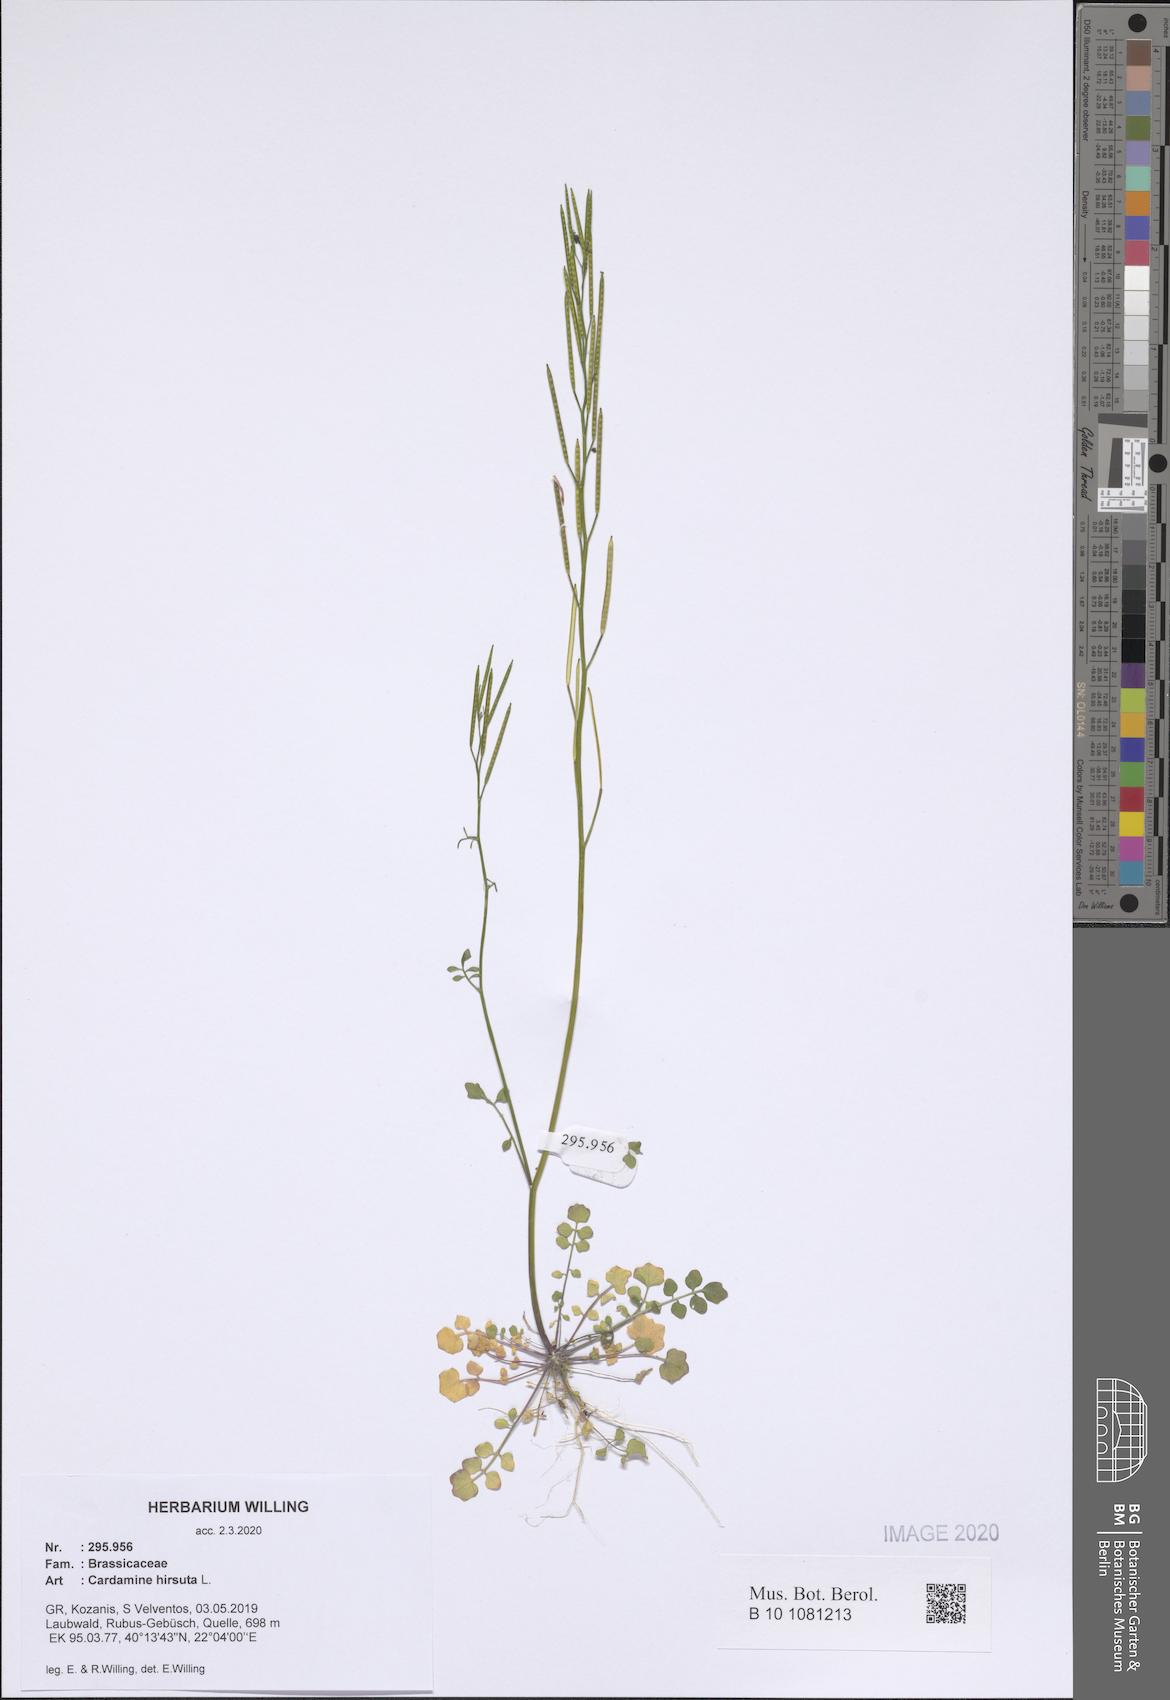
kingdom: Plantae
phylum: Tracheophyta
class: Magnoliopsida
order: Brassicales
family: Brassicaceae
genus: Cardamine
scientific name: Cardamine hirsuta
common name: Hairy bittercress
